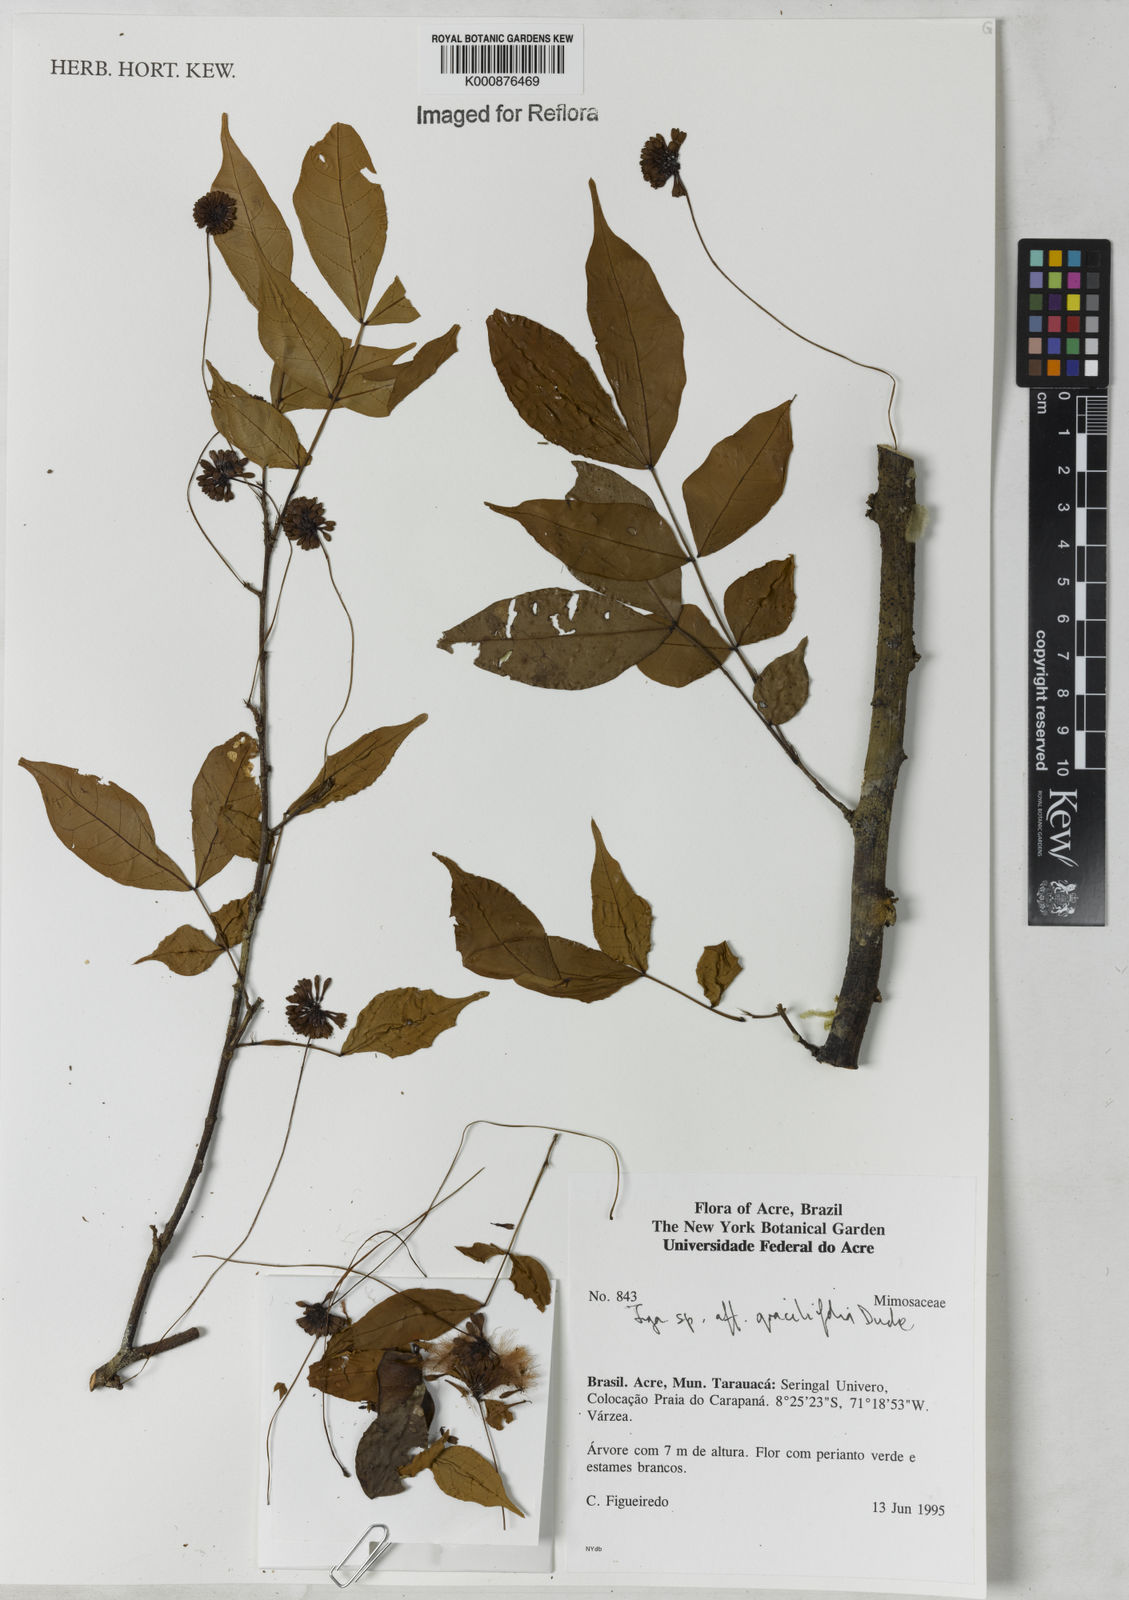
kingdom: Plantae
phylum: Tracheophyta
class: Magnoliopsida
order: Fabales
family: Fabaceae
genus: Inga
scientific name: Inga gracilifolia
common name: Gracefulleaf inga
